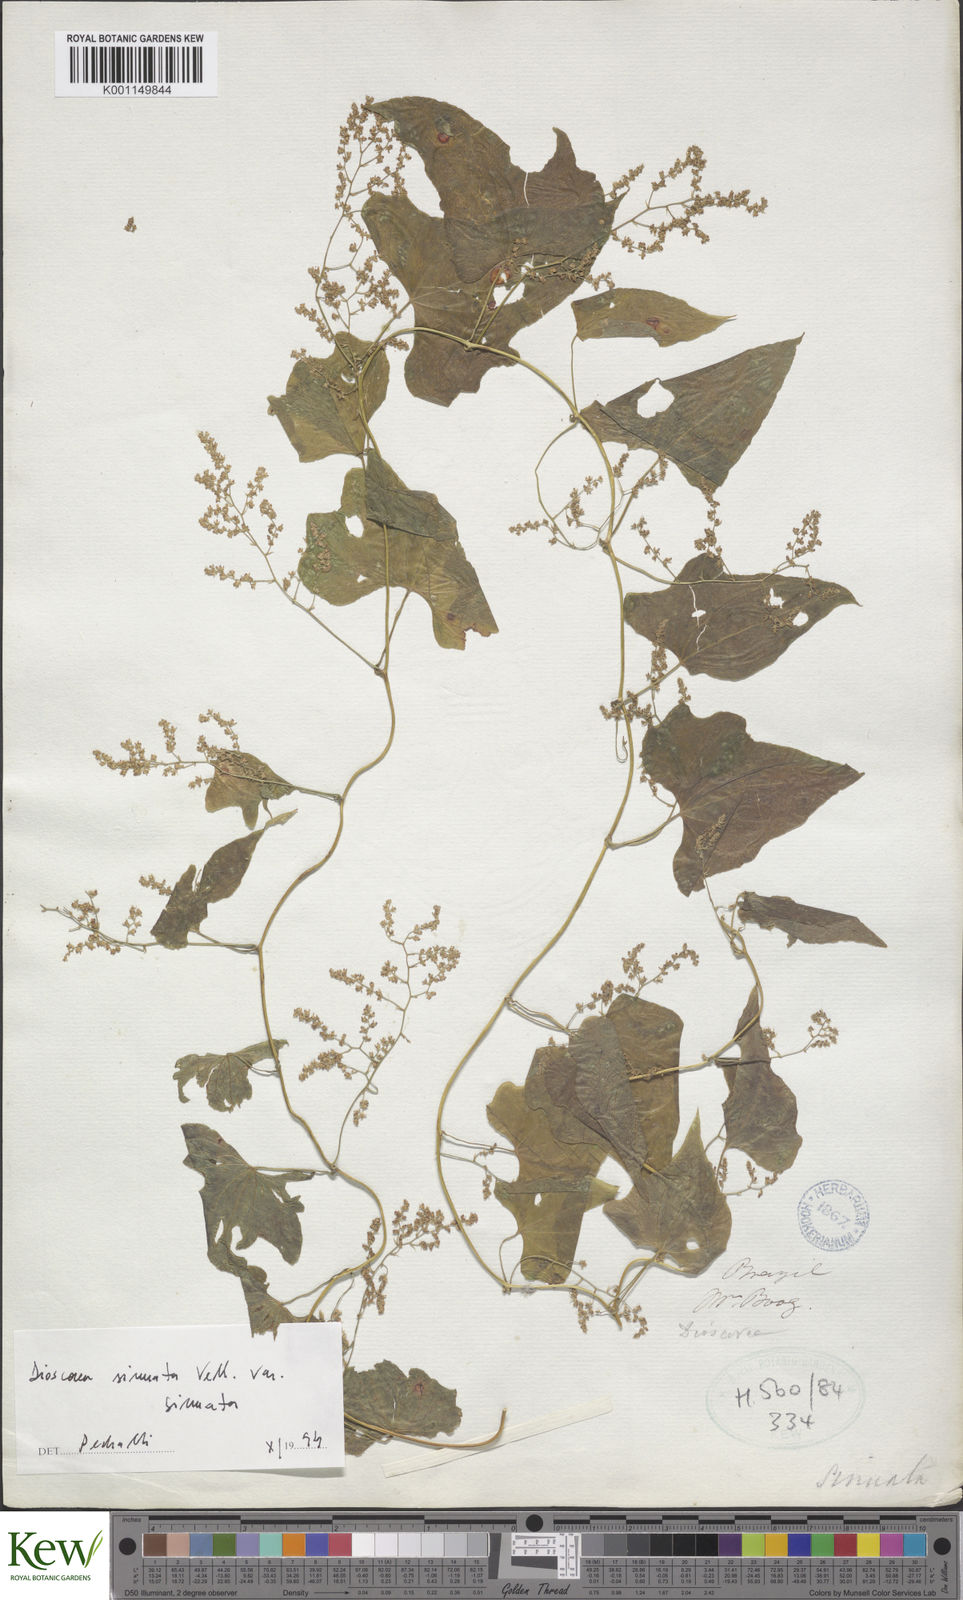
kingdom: Plantae
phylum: Tracheophyta
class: Liliopsida
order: Dioscoreales
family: Dioscoreaceae
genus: Dioscorea
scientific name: Dioscorea sinuata
